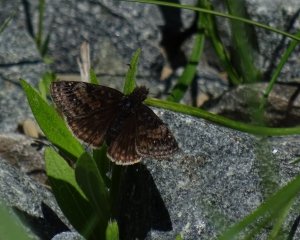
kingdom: Animalia
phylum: Arthropoda
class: Insecta
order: Lepidoptera
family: Hesperiidae
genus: Gesta
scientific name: Gesta
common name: Wild Indigo Duskywing
